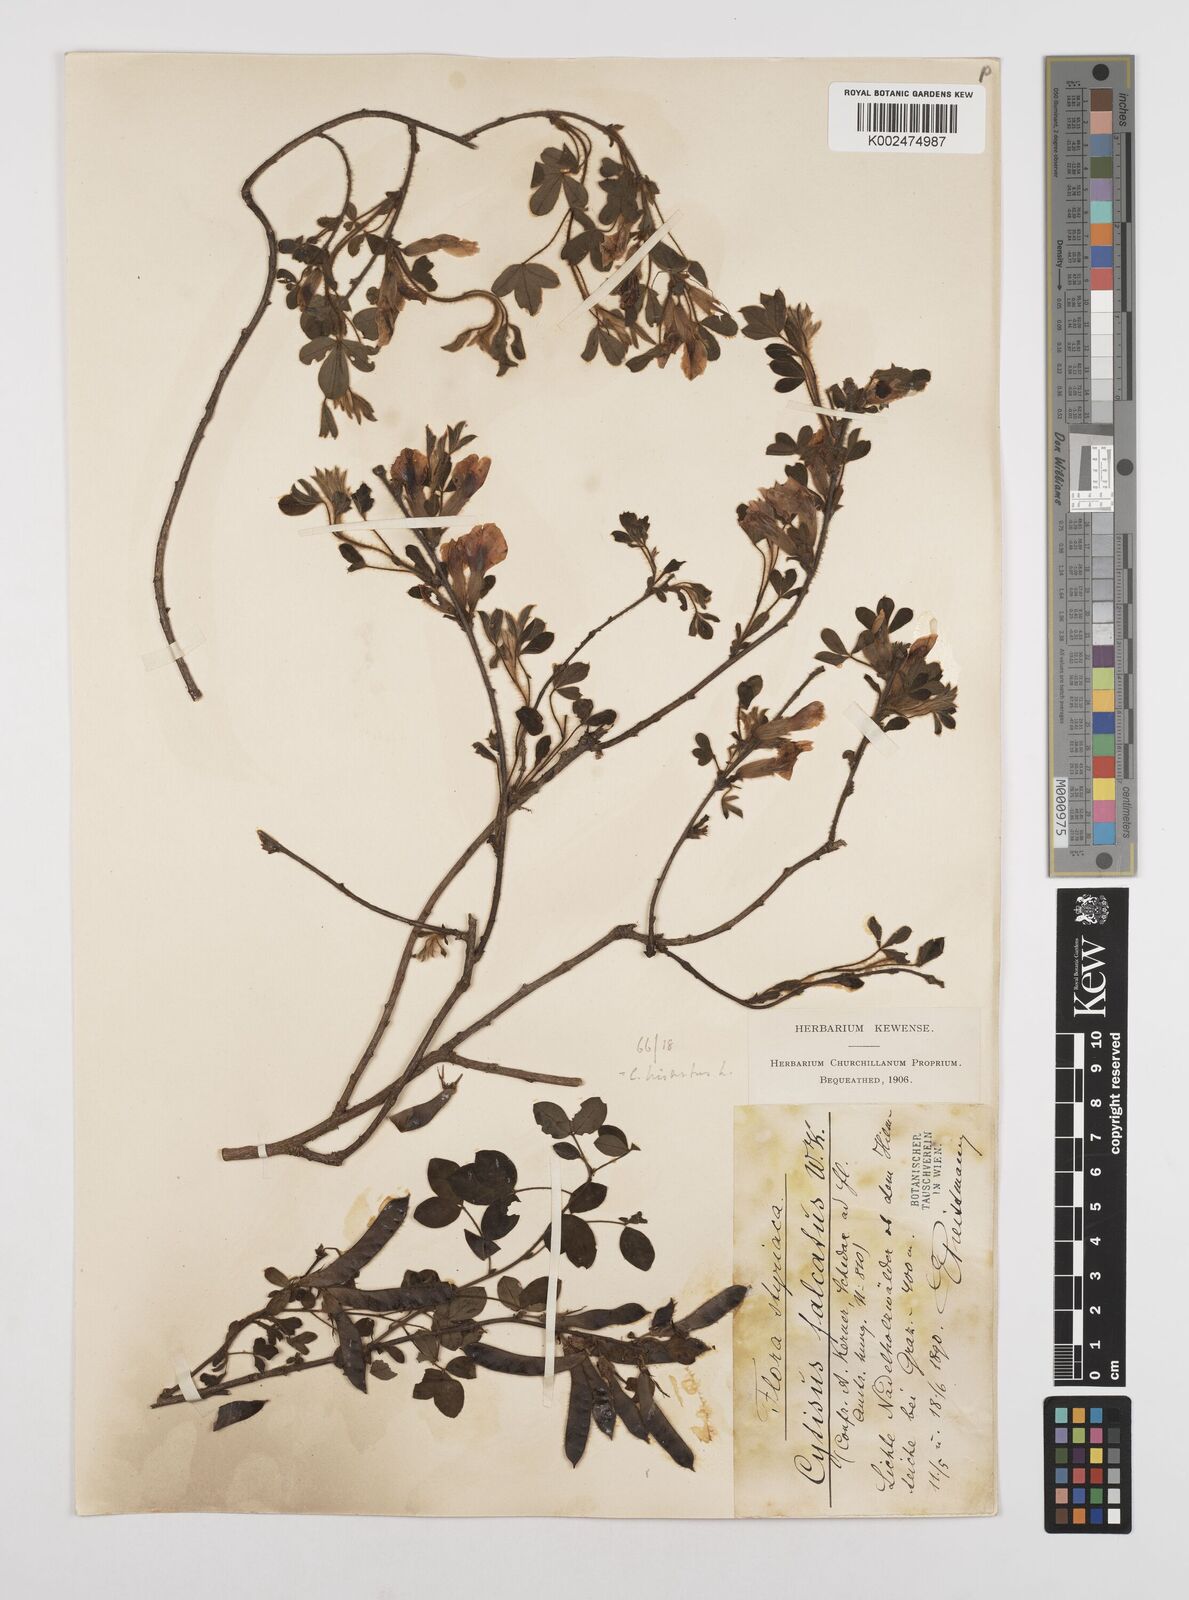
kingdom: Plantae
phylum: Tracheophyta
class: Magnoliopsida
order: Fabales
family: Fabaceae
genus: Chamaecytisus
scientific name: Chamaecytisus hirsutus
